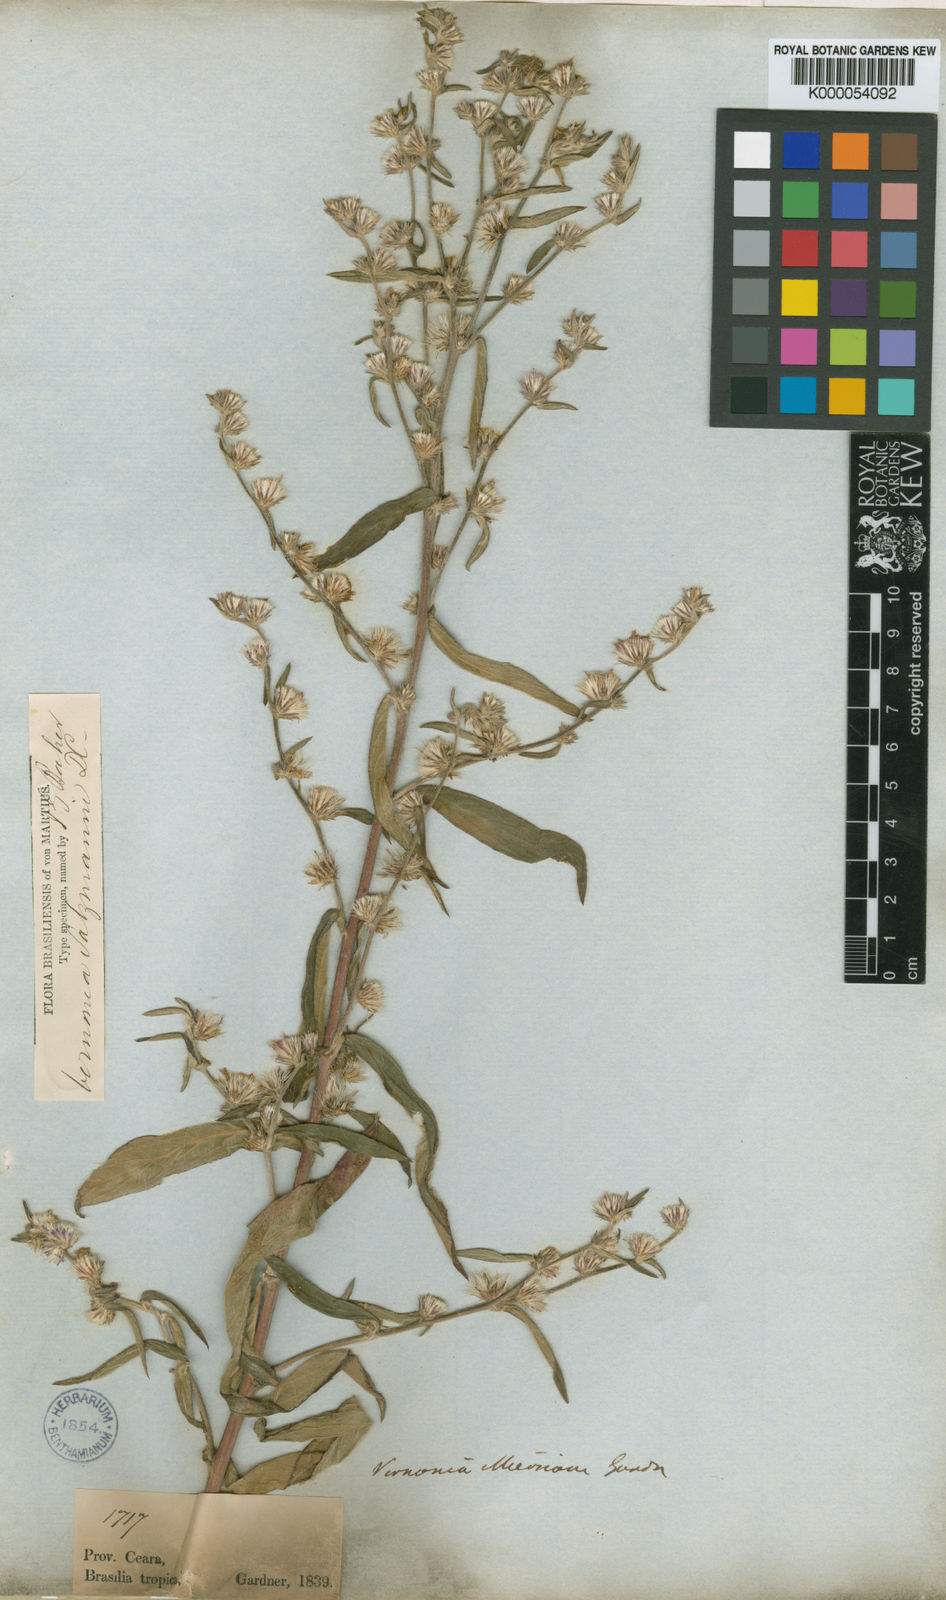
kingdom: Plantae
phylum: Tracheophyta
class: Magnoliopsida
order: Asterales
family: Asteraceae
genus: Lepidaploa
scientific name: Lepidaploa salzmannii
